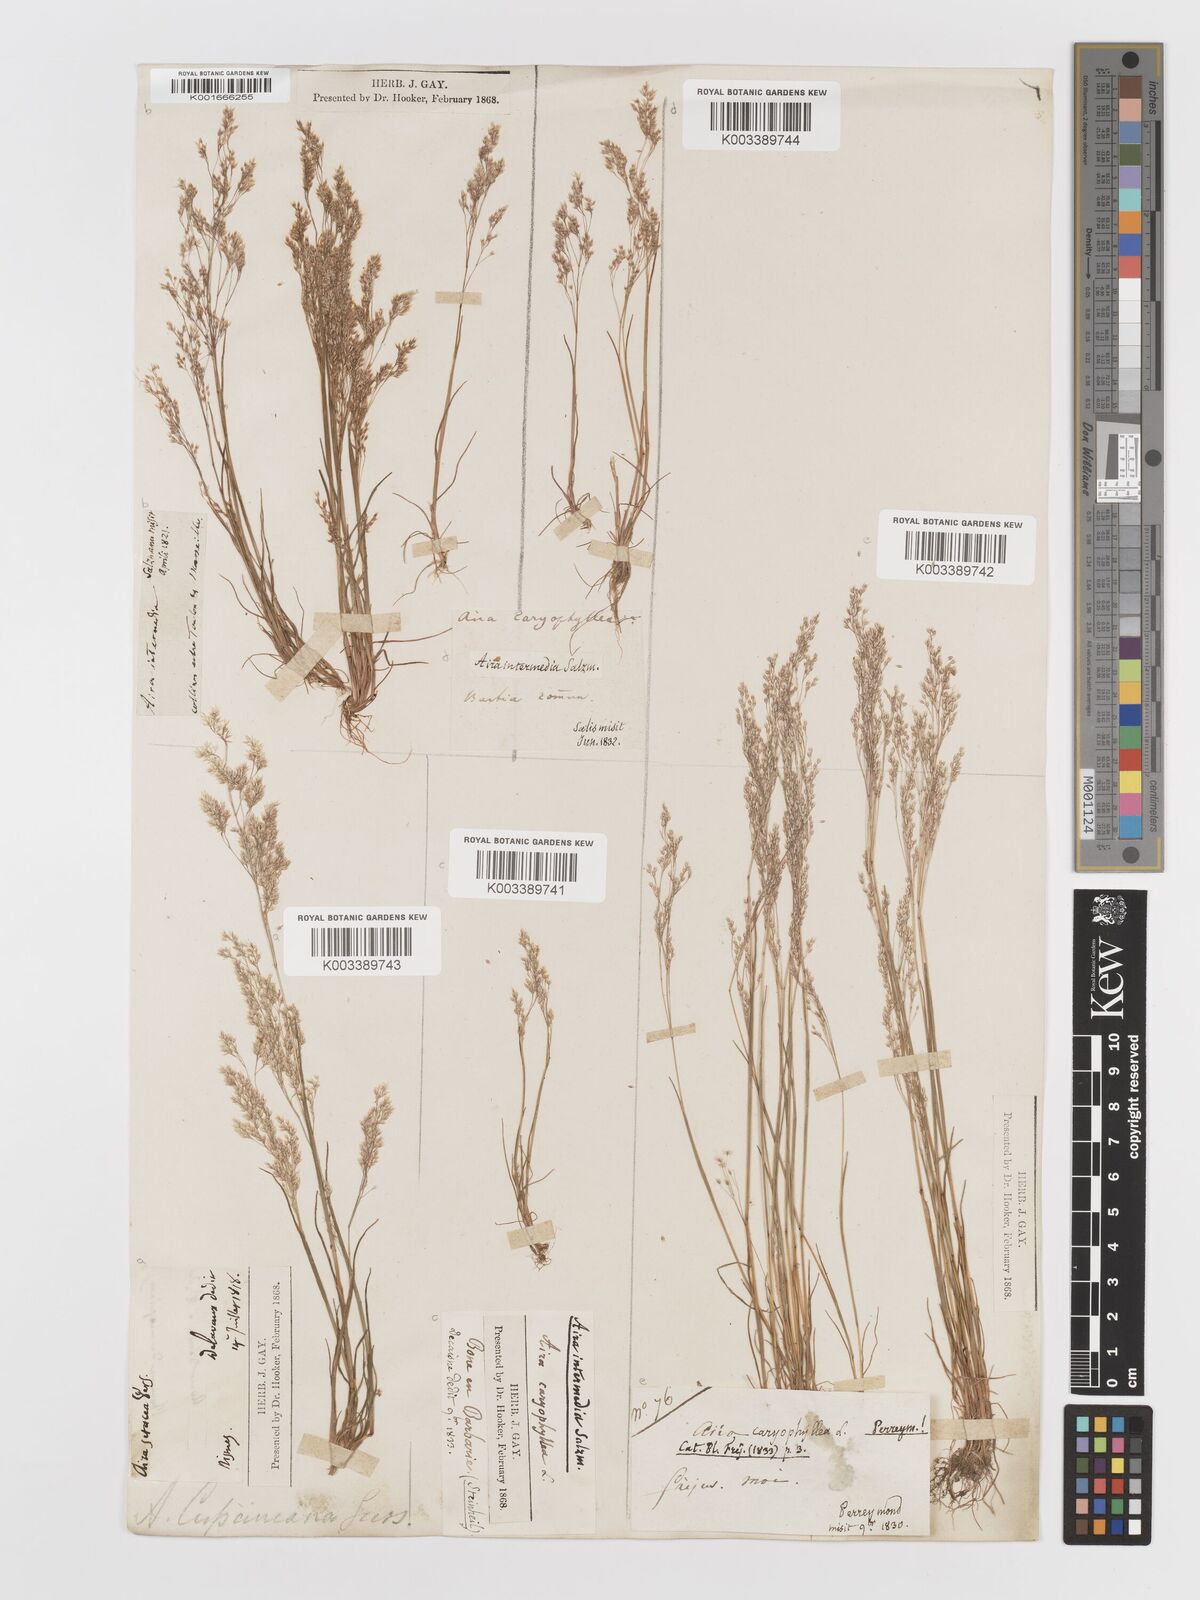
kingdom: Plantae
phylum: Tracheophyta
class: Liliopsida
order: Poales
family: Poaceae
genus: Aira
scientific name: Aira cupaniana
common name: Silver hairgrass
